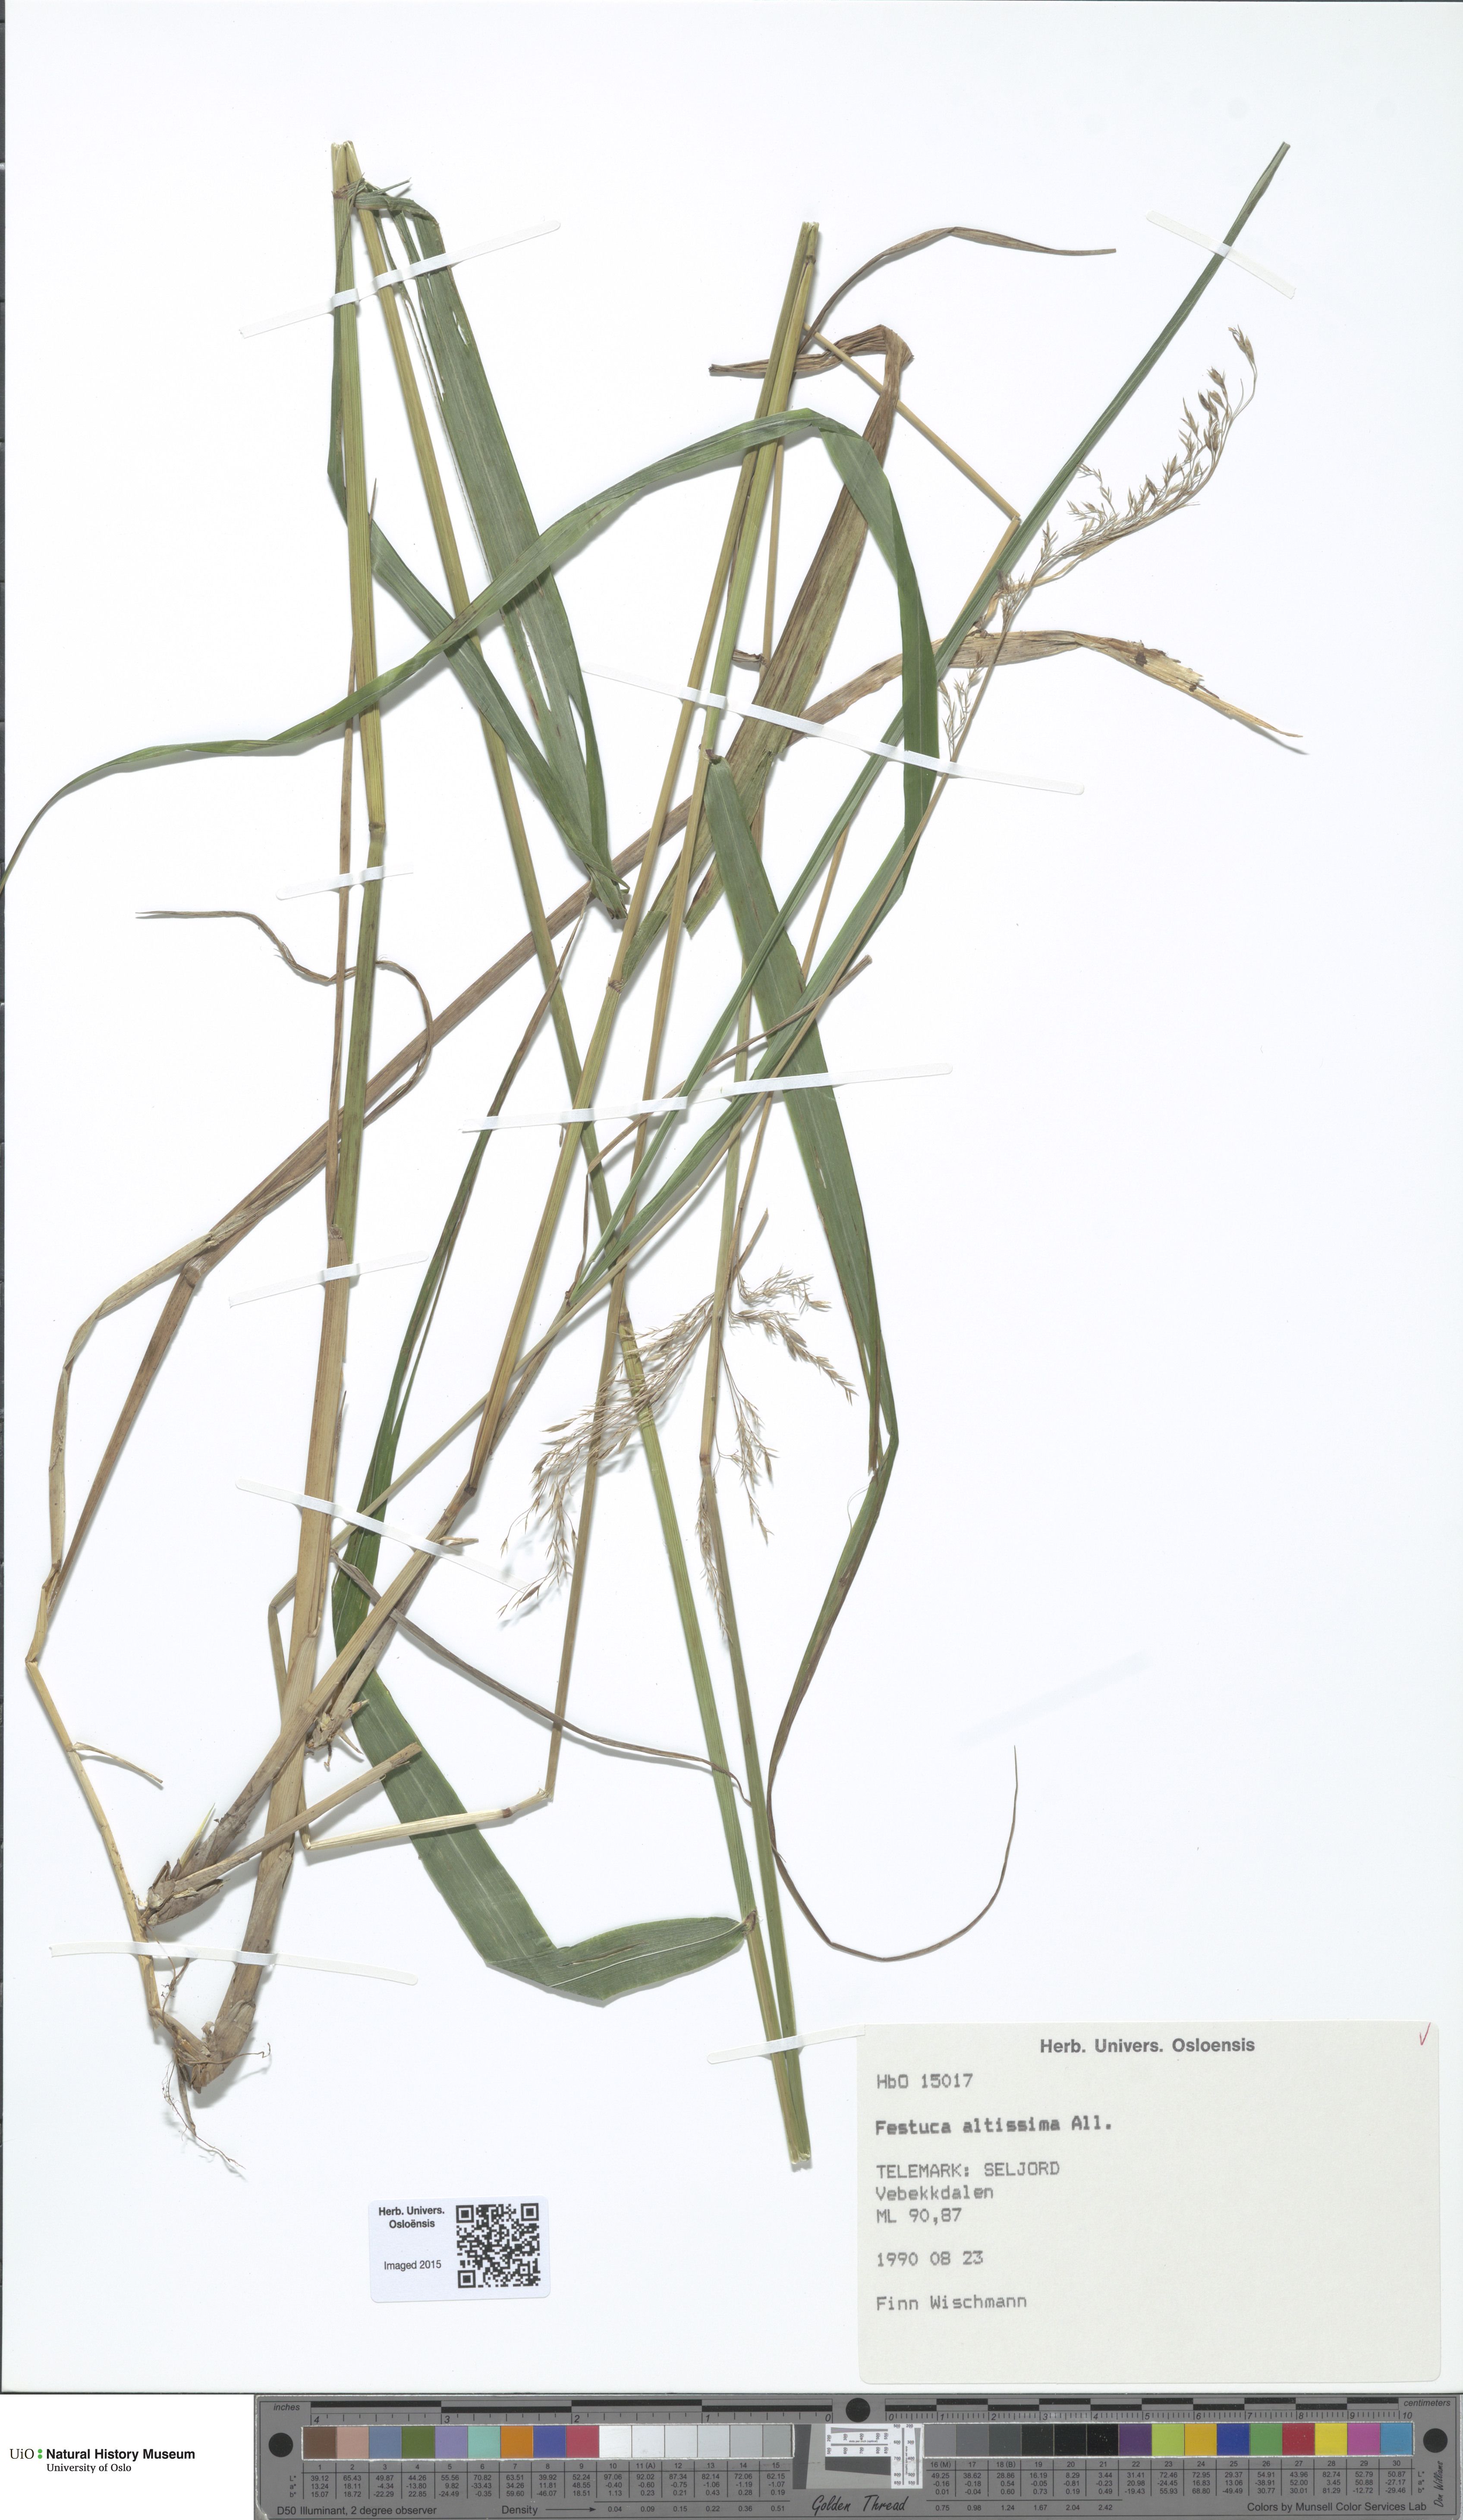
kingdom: Plantae
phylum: Tracheophyta
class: Liliopsida
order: Poales
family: Poaceae
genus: Festuca
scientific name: Festuca altissima
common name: Wood fescue
